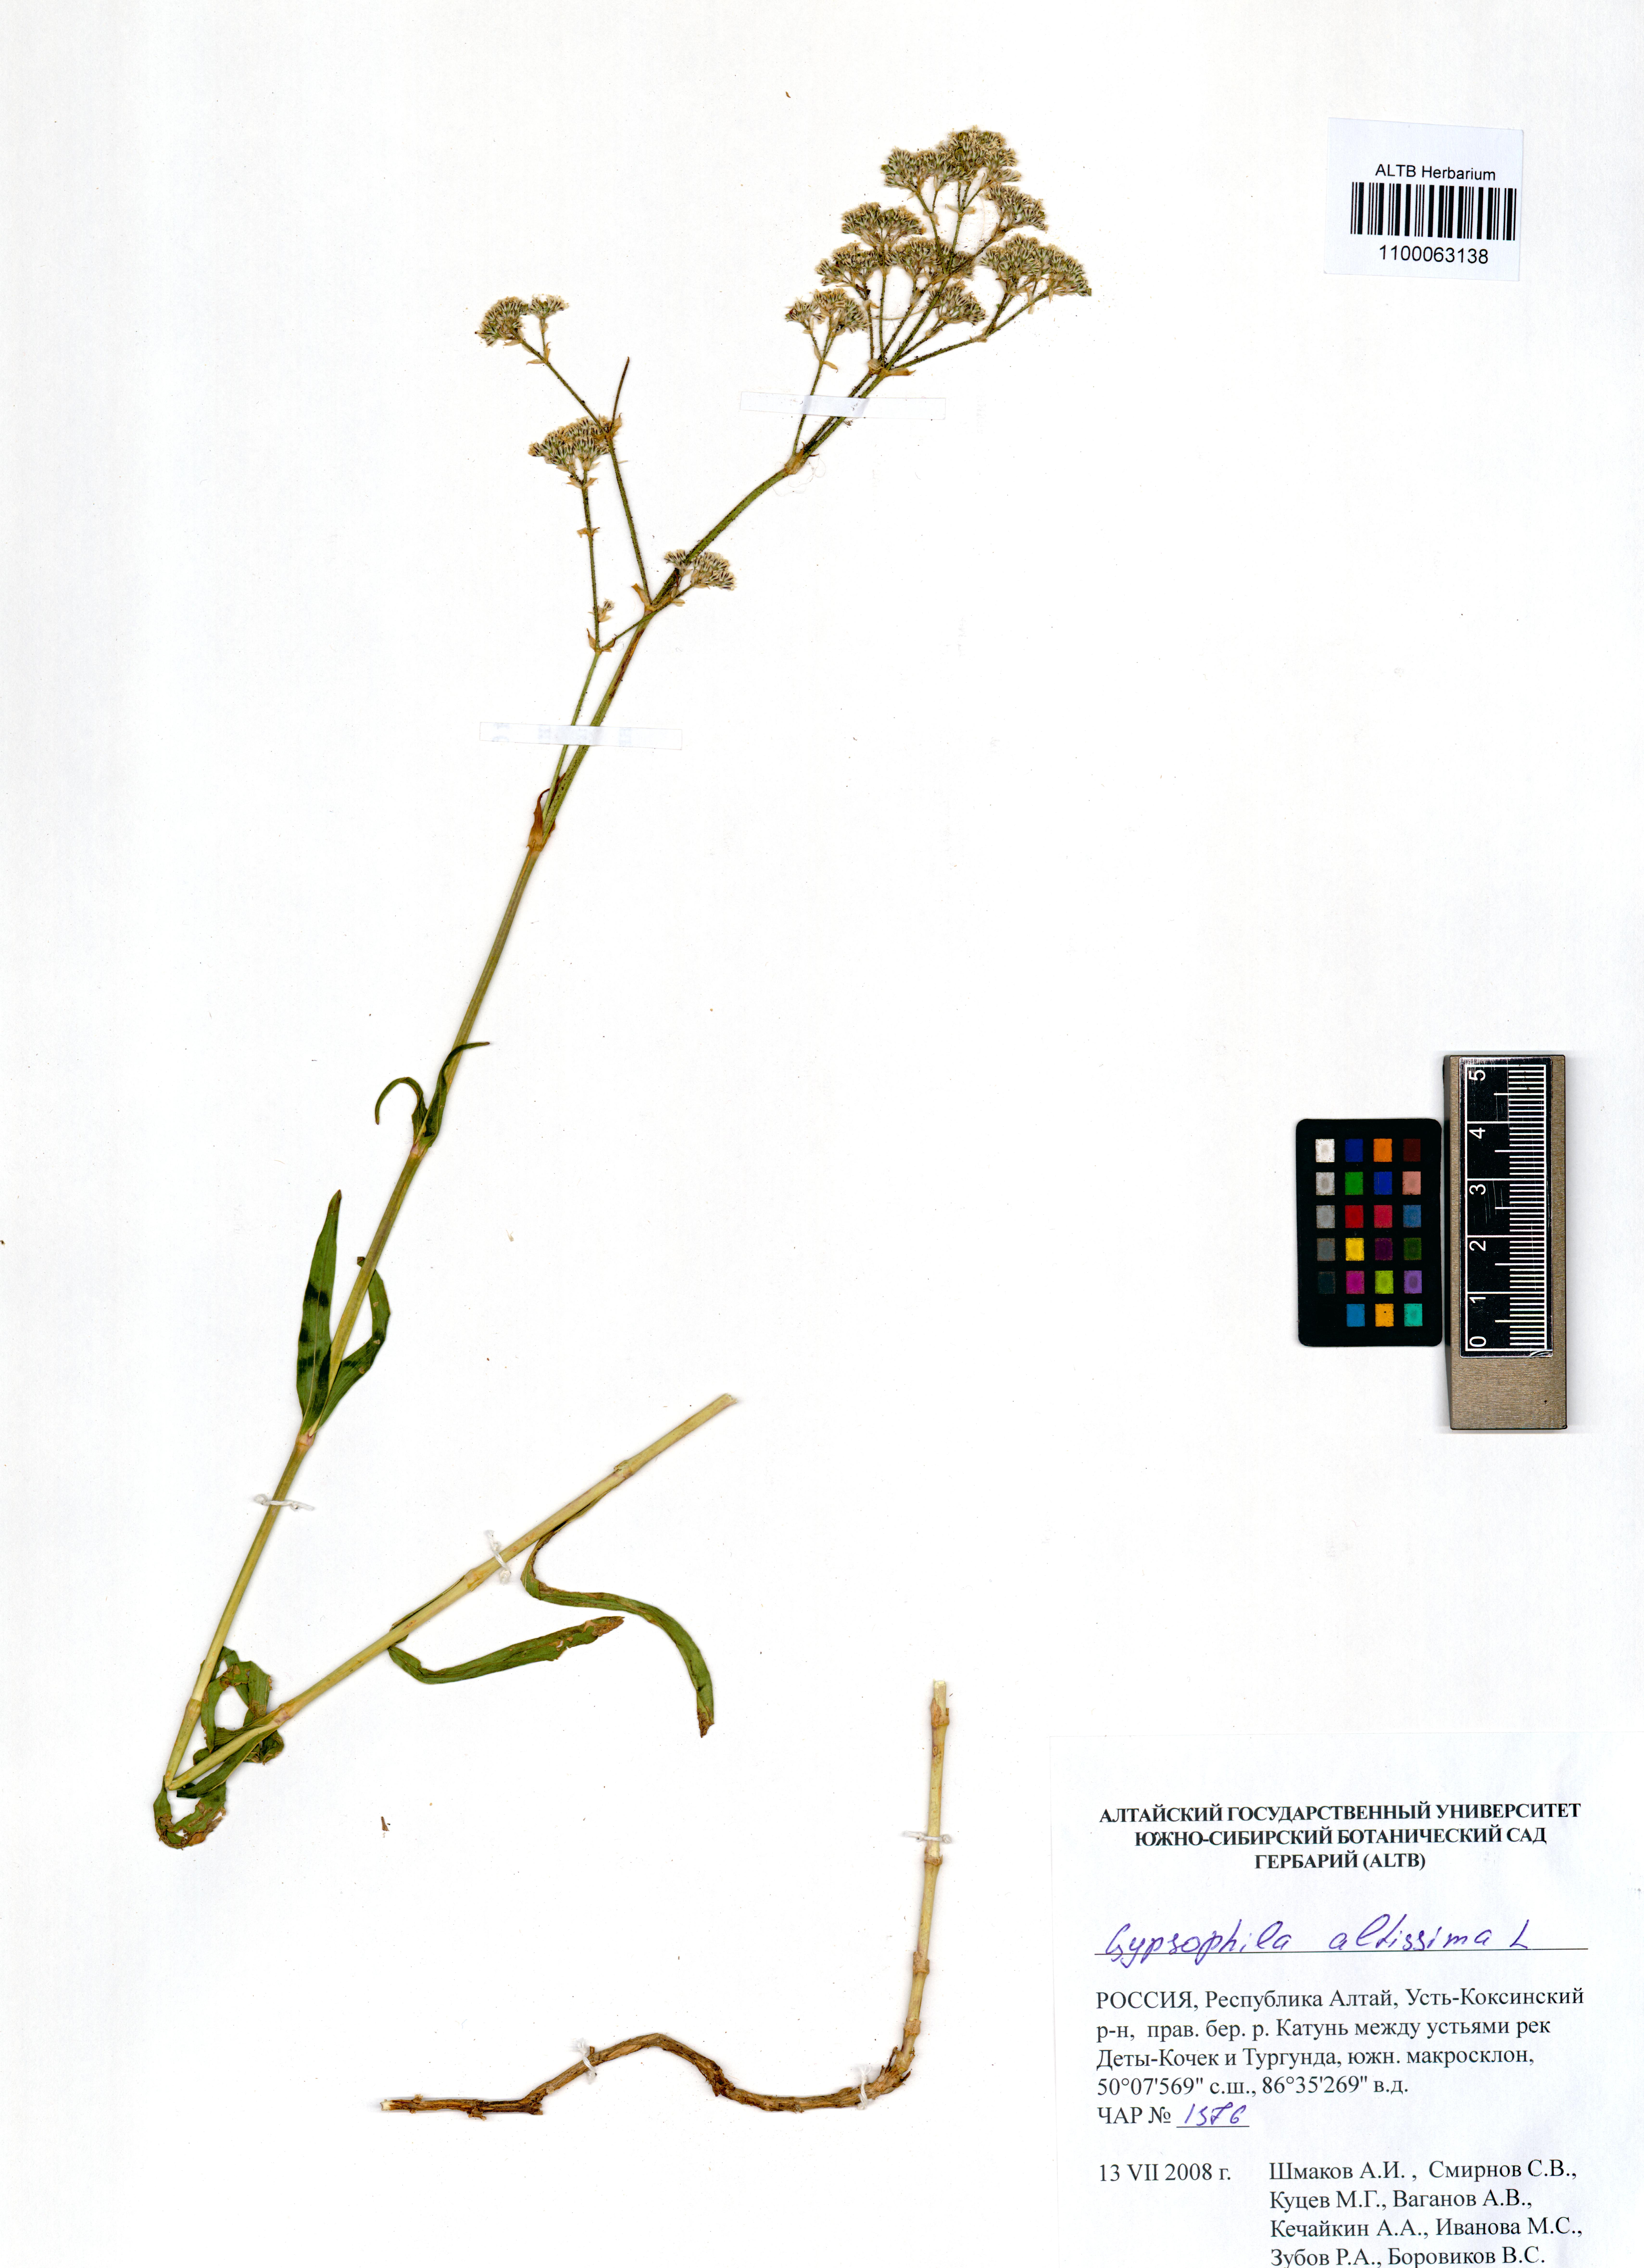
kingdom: Plantae
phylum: Tracheophyta
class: Magnoliopsida
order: Caryophyllales
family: Caryophyllaceae
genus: Gypsophila
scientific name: Gypsophila altissima
